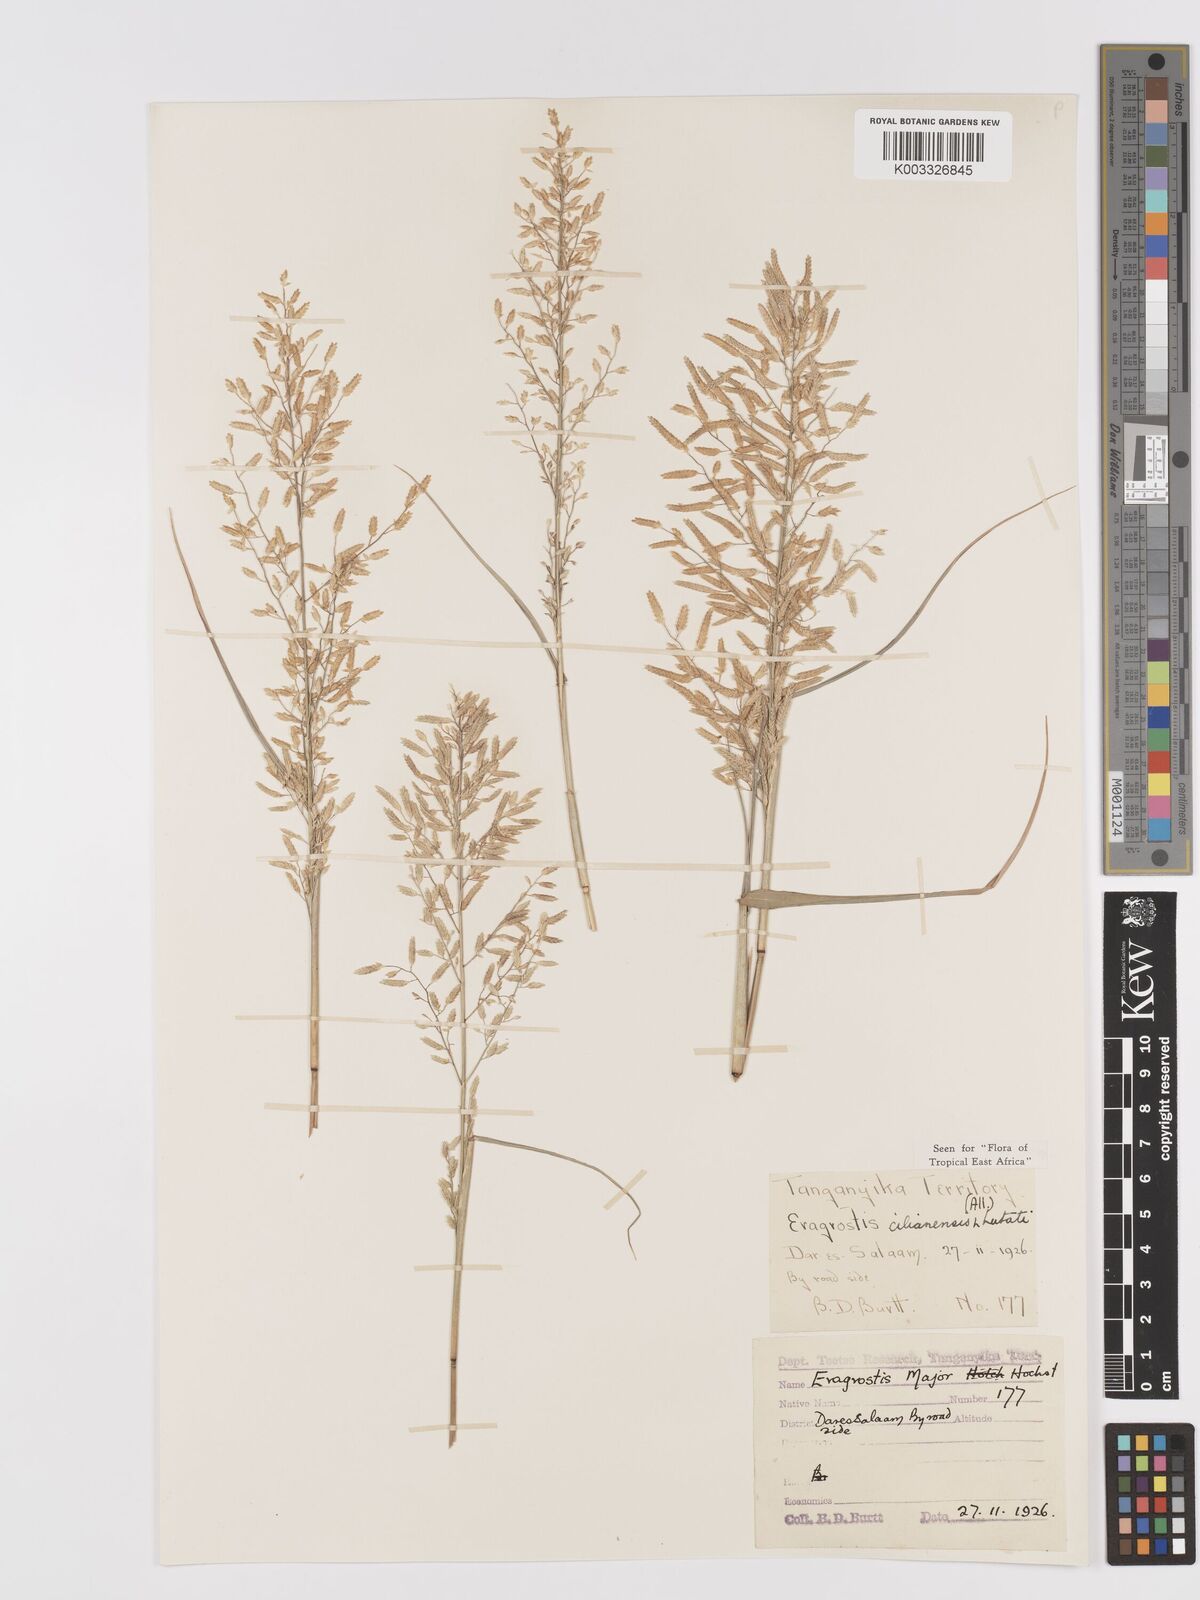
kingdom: Plantae
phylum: Tracheophyta
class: Liliopsida
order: Poales
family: Poaceae
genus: Eragrostis
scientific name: Eragrostis cilianensis
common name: Stinkgrass
